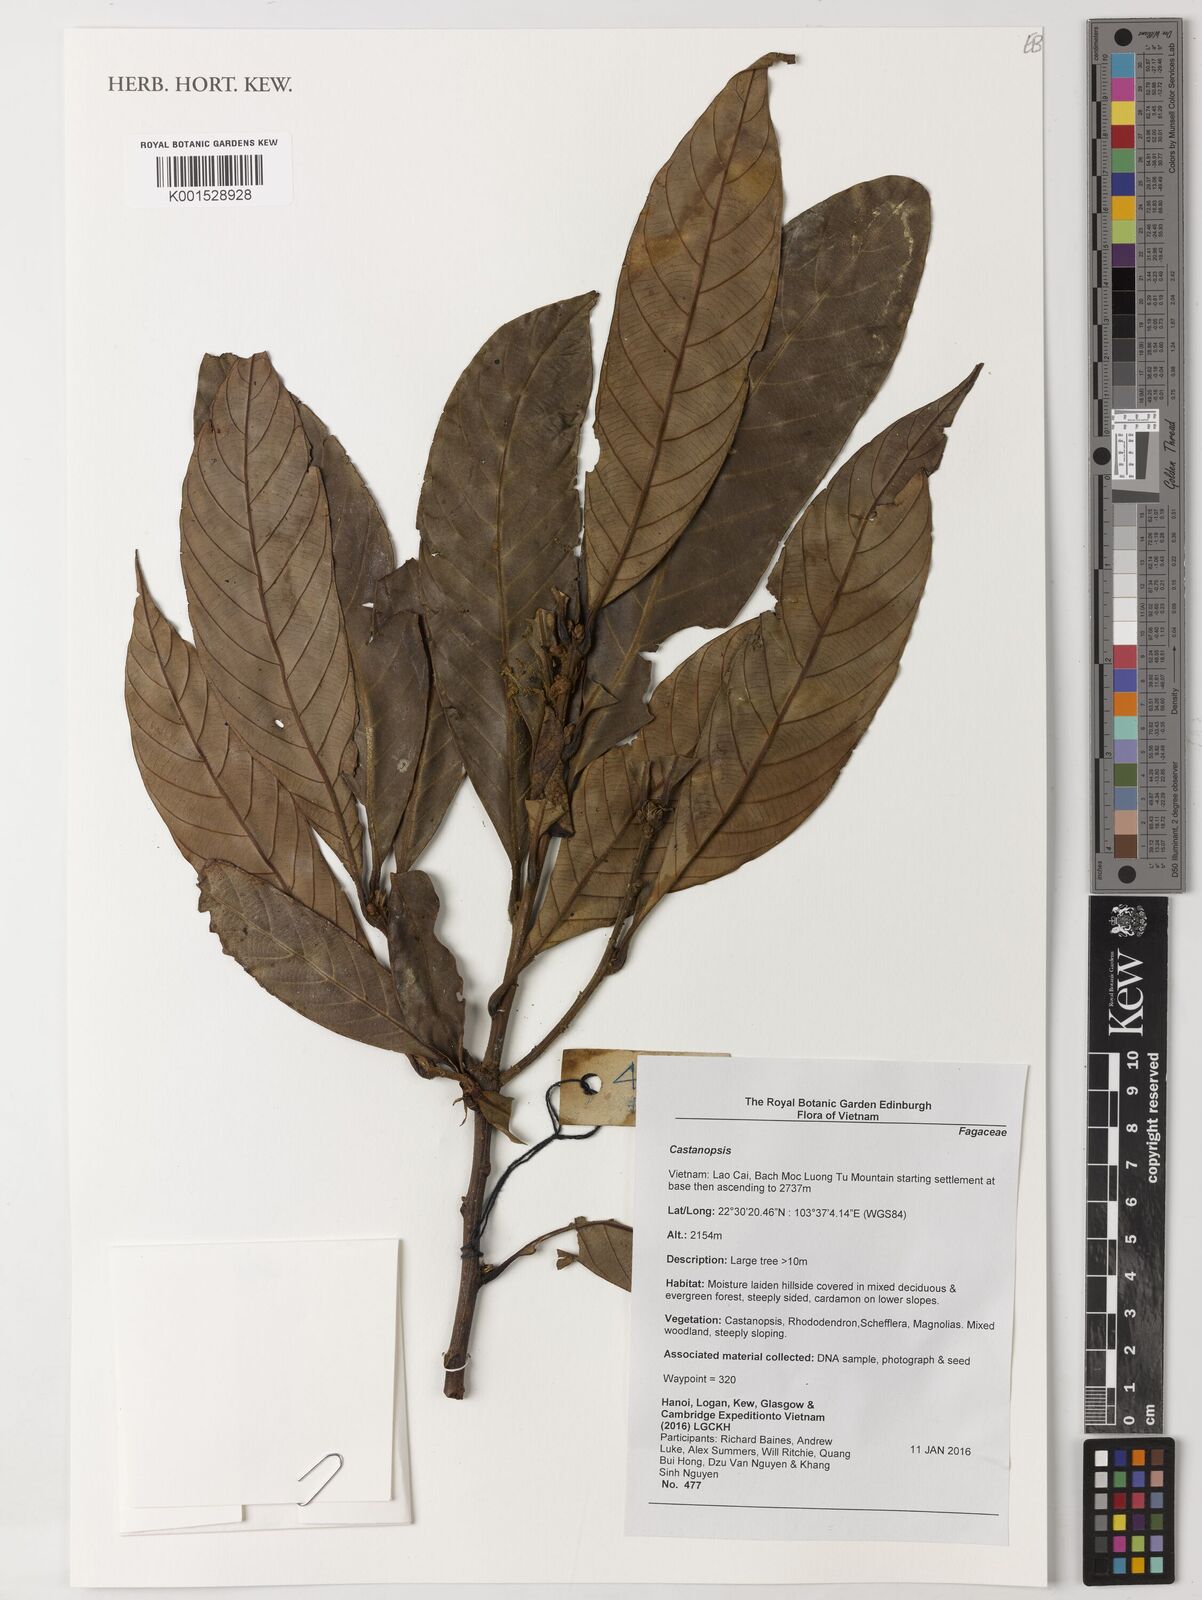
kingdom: Plantae
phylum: Tracheophyta
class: Magnoliopsida
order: Fagales
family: Fagaceae
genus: Castanopsis
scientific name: Castanopsis
